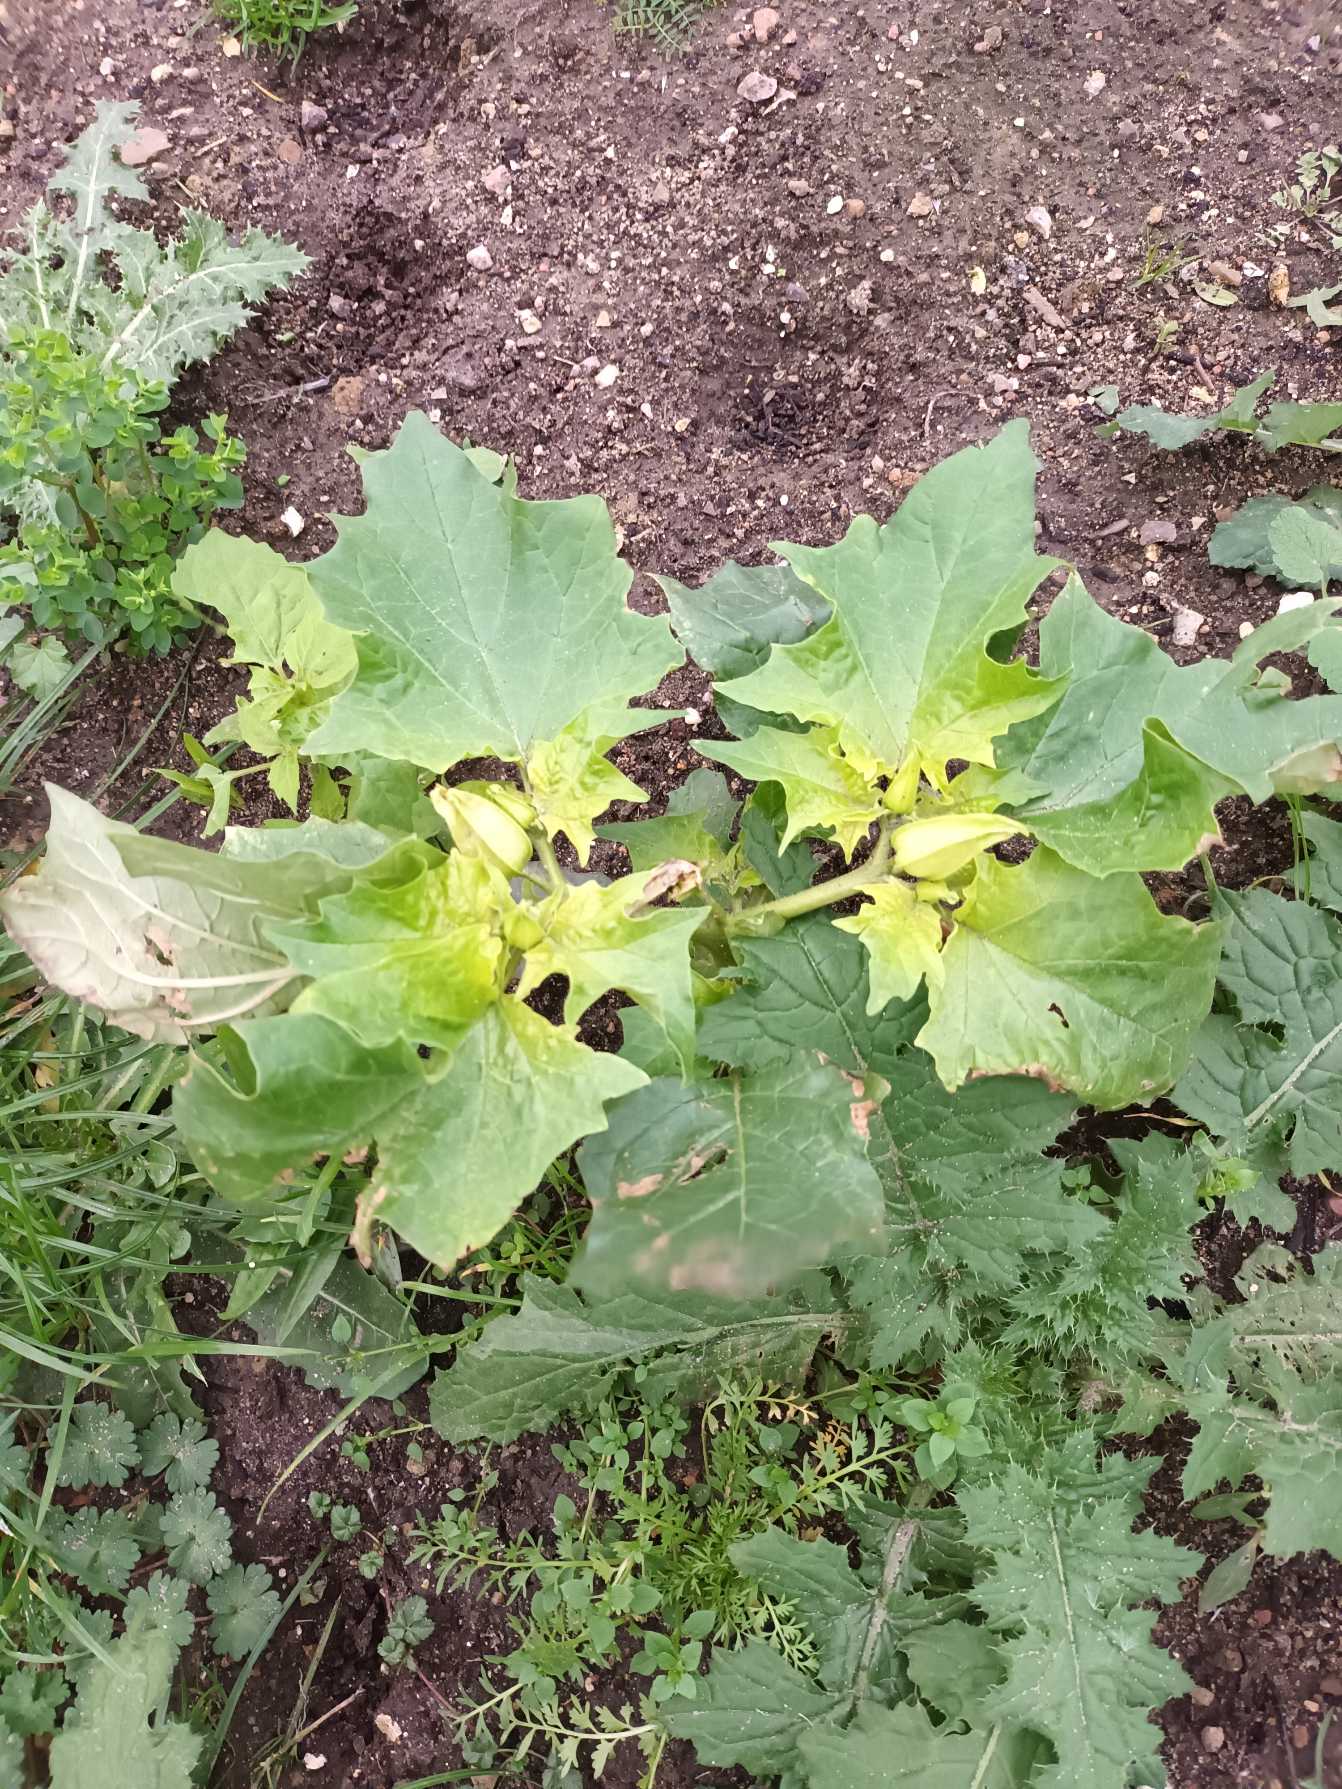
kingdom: Plantae
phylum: Tracheophyta
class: Magnoliopsida
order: Solanales
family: Solanaceae
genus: Datura
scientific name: Datura stramonium
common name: Pigæble
